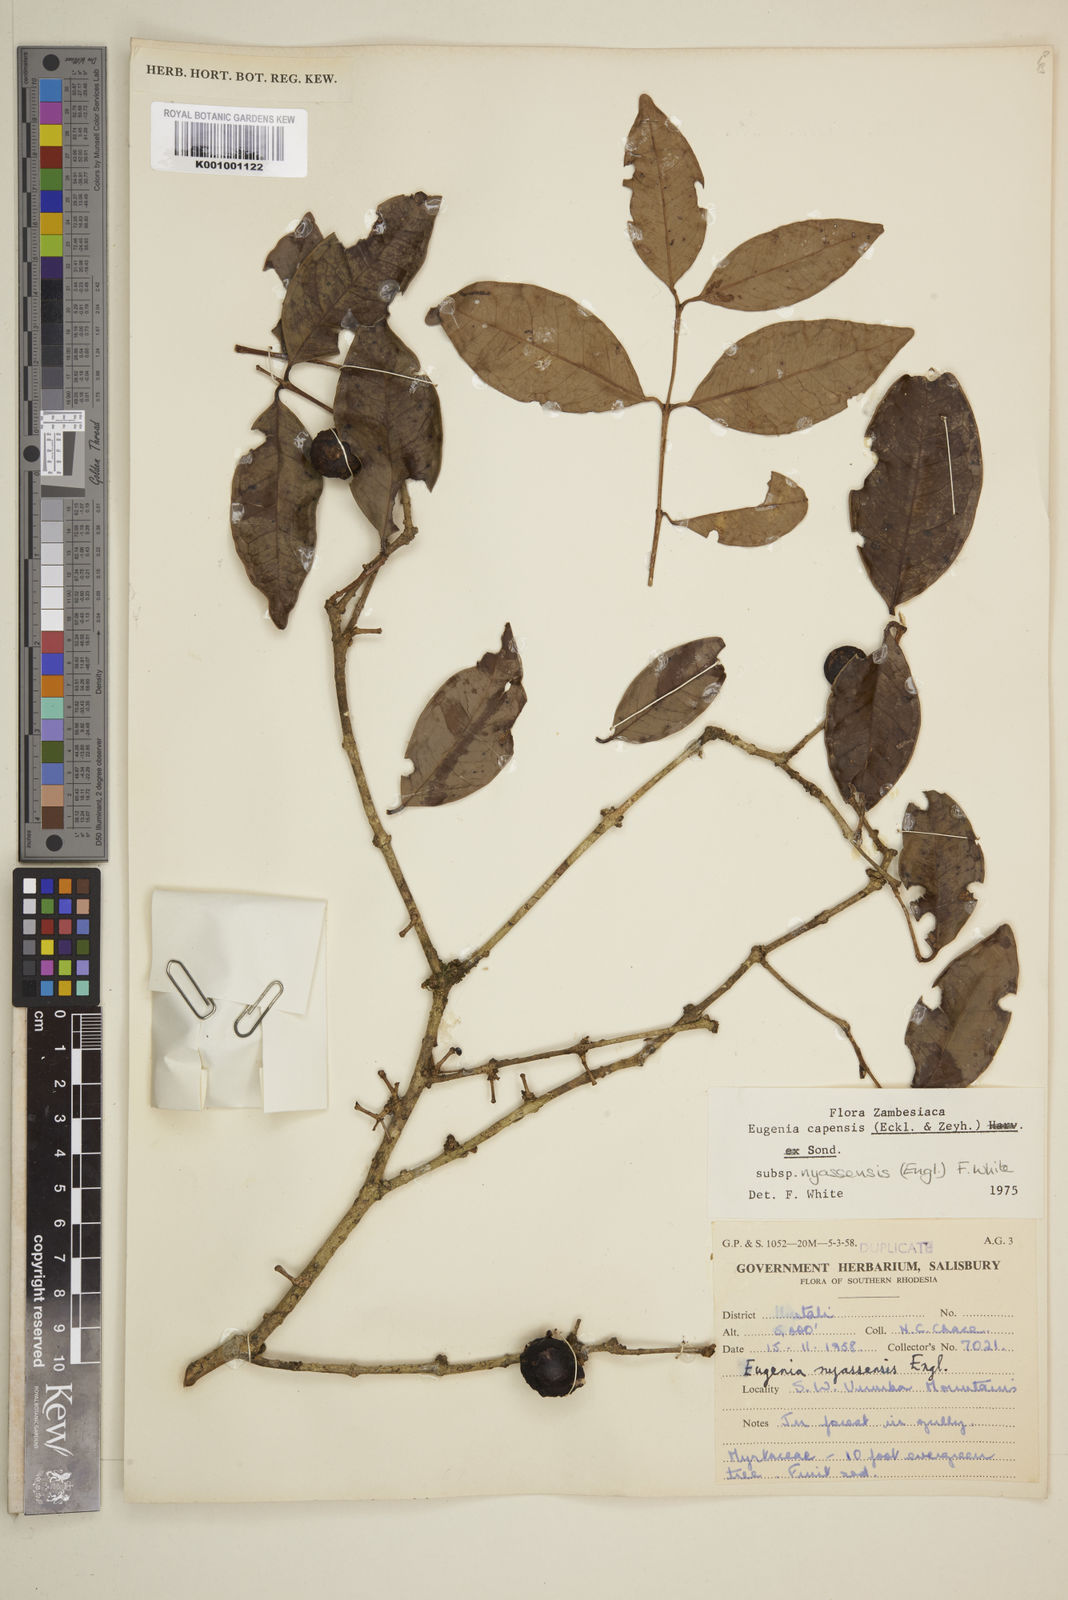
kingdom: Plantae
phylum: Tracheophyta
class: Magnoliopsida
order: Myrtales
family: Myrtaceae
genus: Eugenia
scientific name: Eugenia capensis
